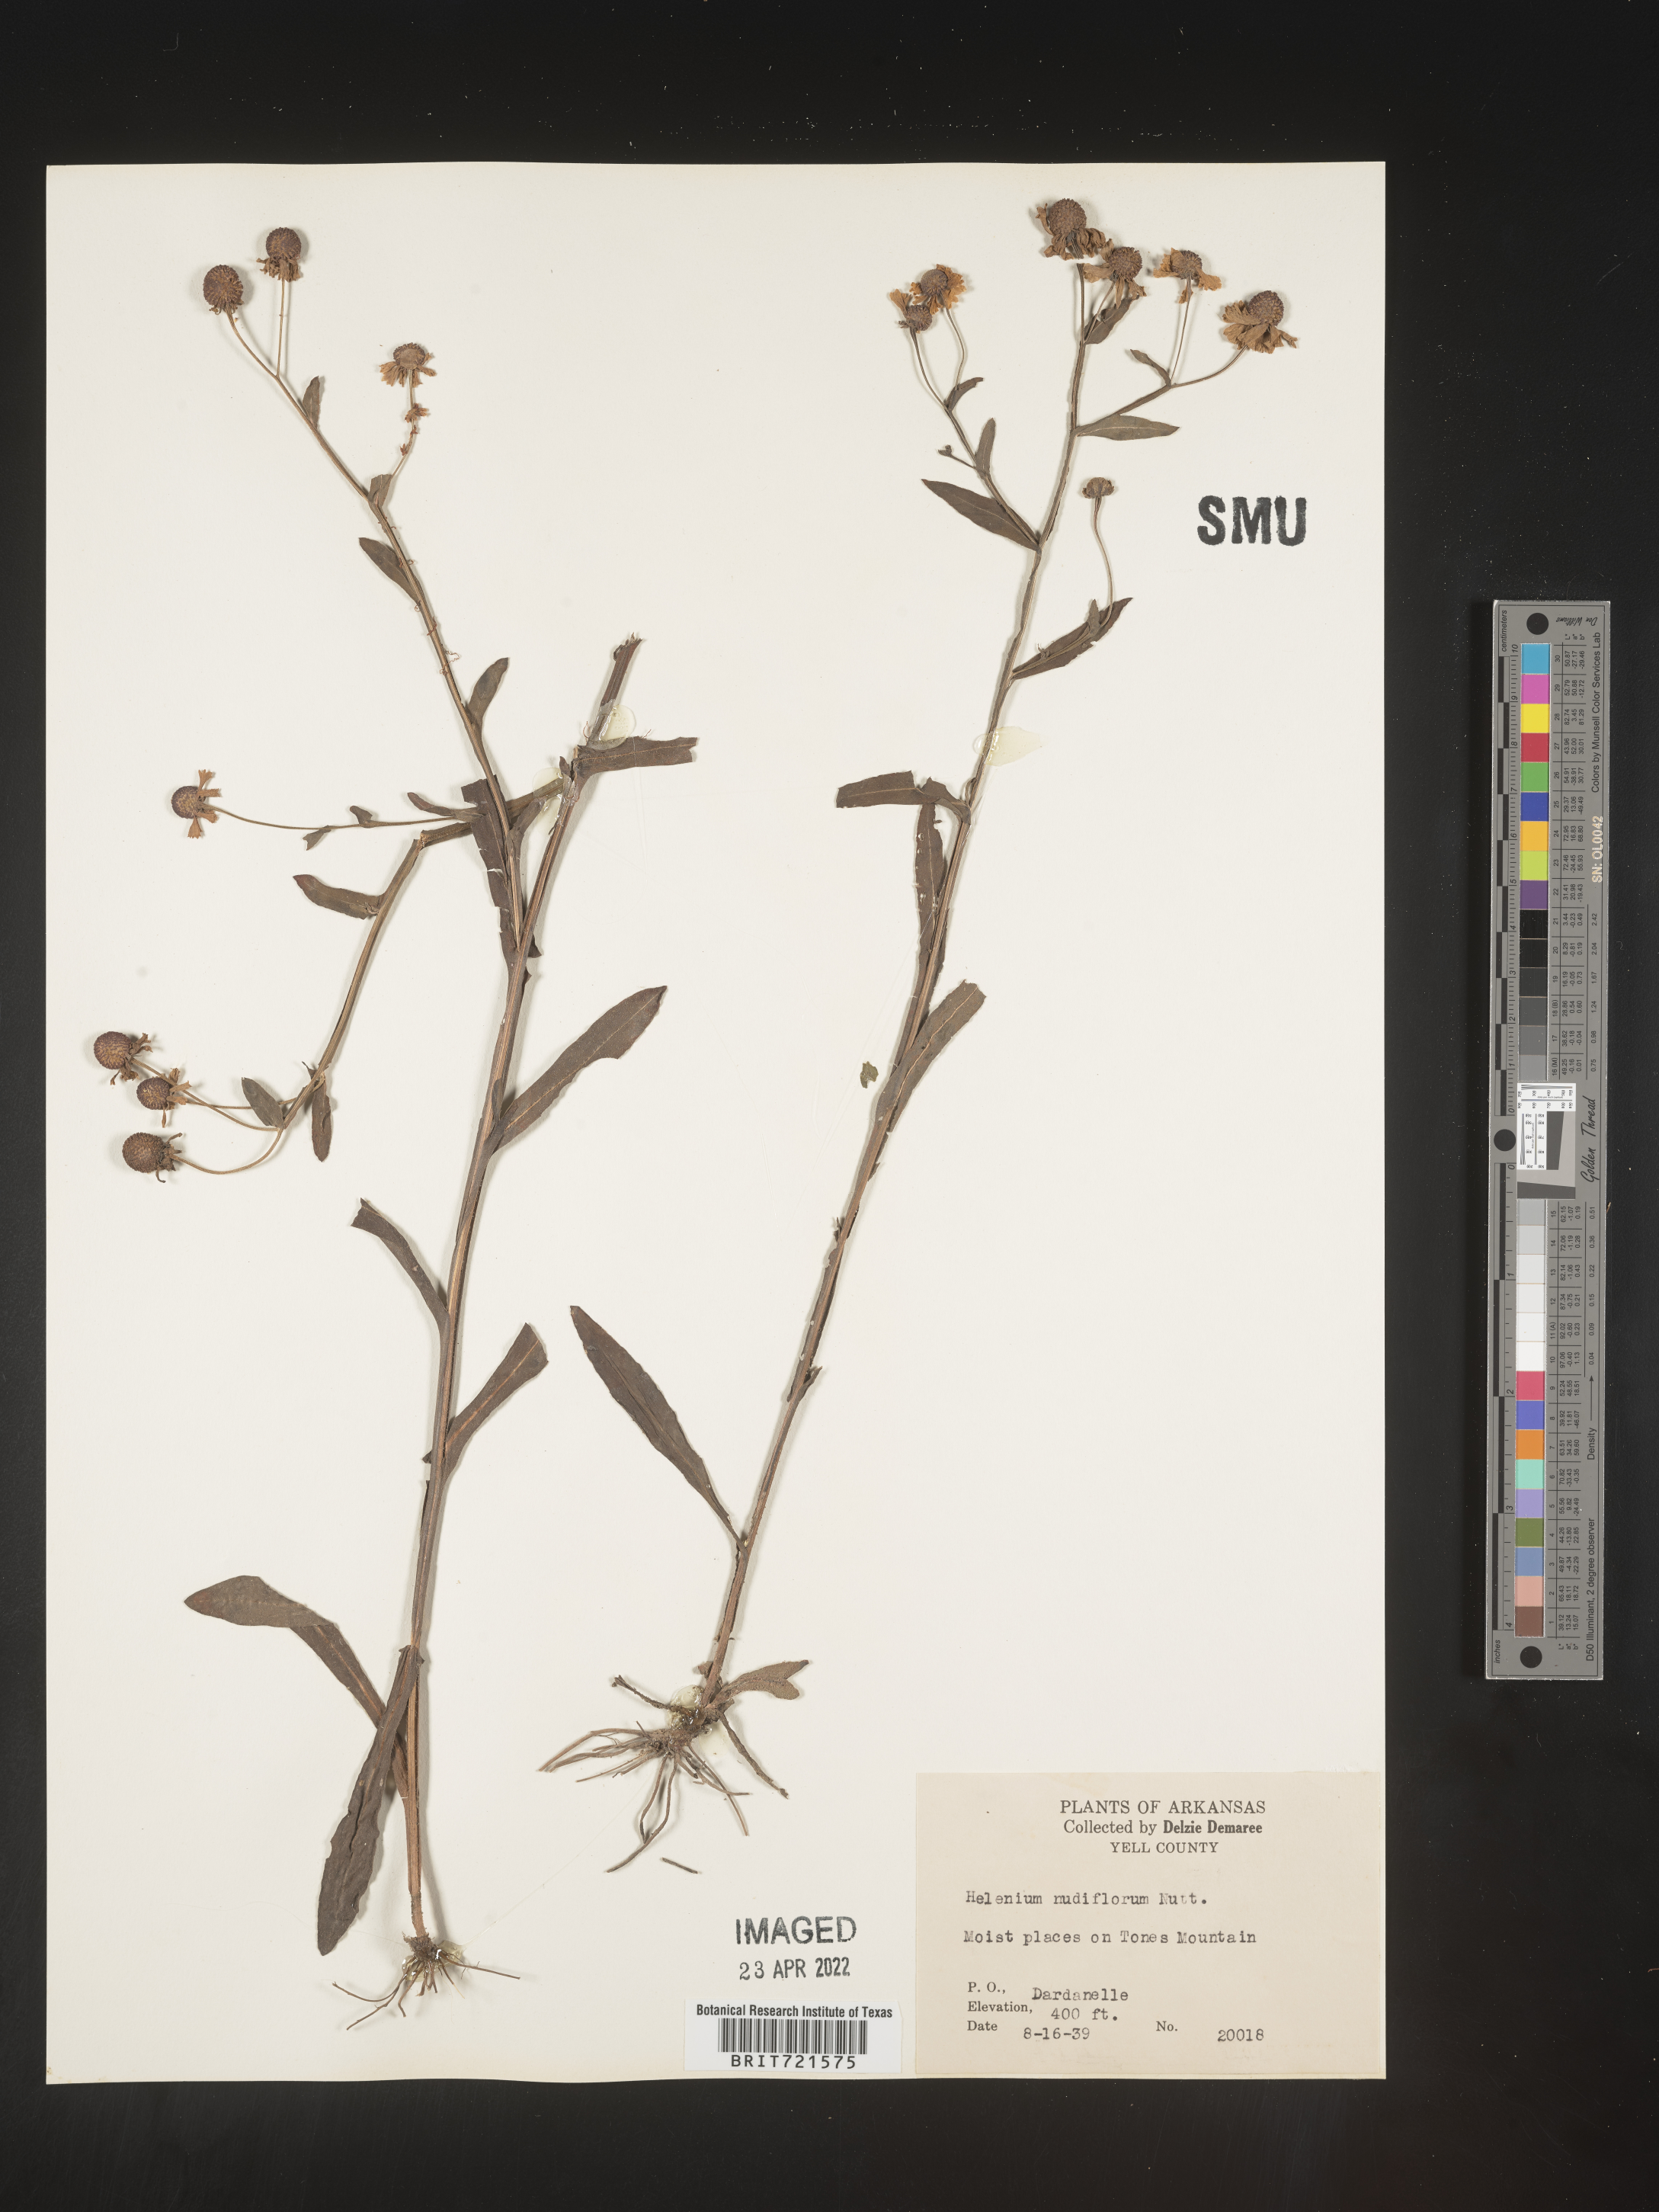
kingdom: Plantae
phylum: Tracheophyta
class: Magnoliopsida
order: Asterales
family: Asteraceae
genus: Helenium
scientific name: Helenium flexuosum
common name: Naked-flowered sneezeweed
